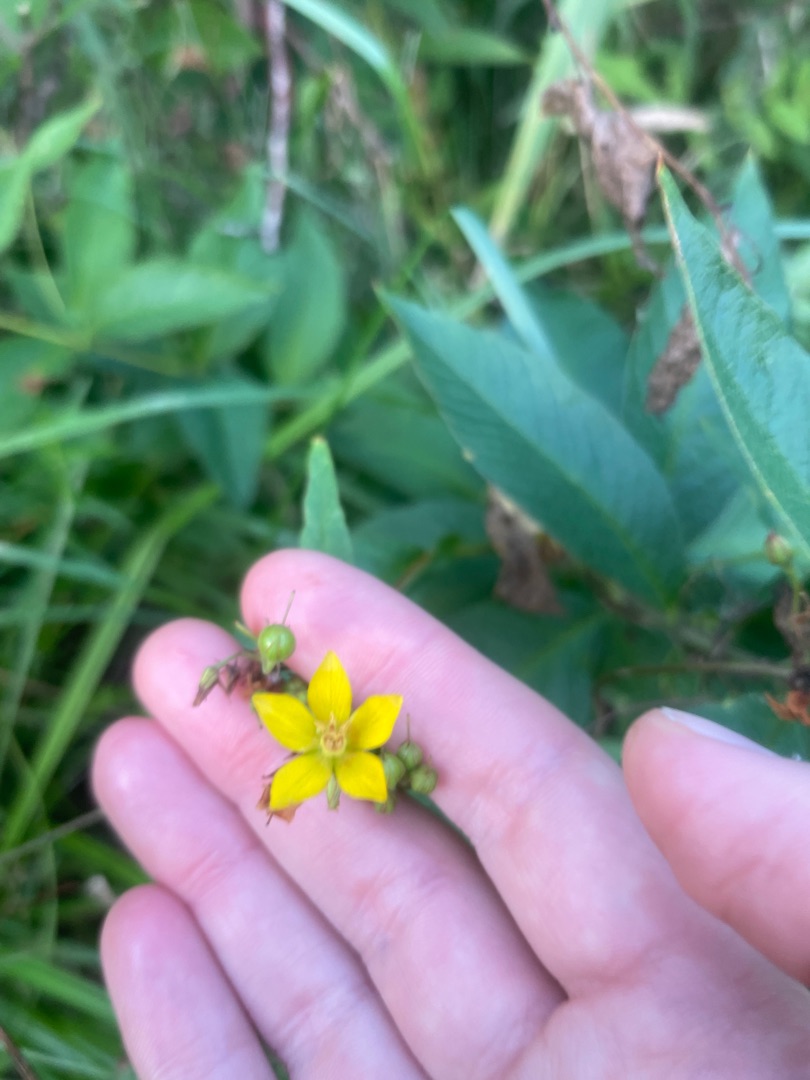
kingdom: Plantae
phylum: Tracheophyta
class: Magnoliopsida
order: Ericales
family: Primulaceae
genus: Lysimachia
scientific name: Lysimachia vulgaris
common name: Almindelig fredløs
